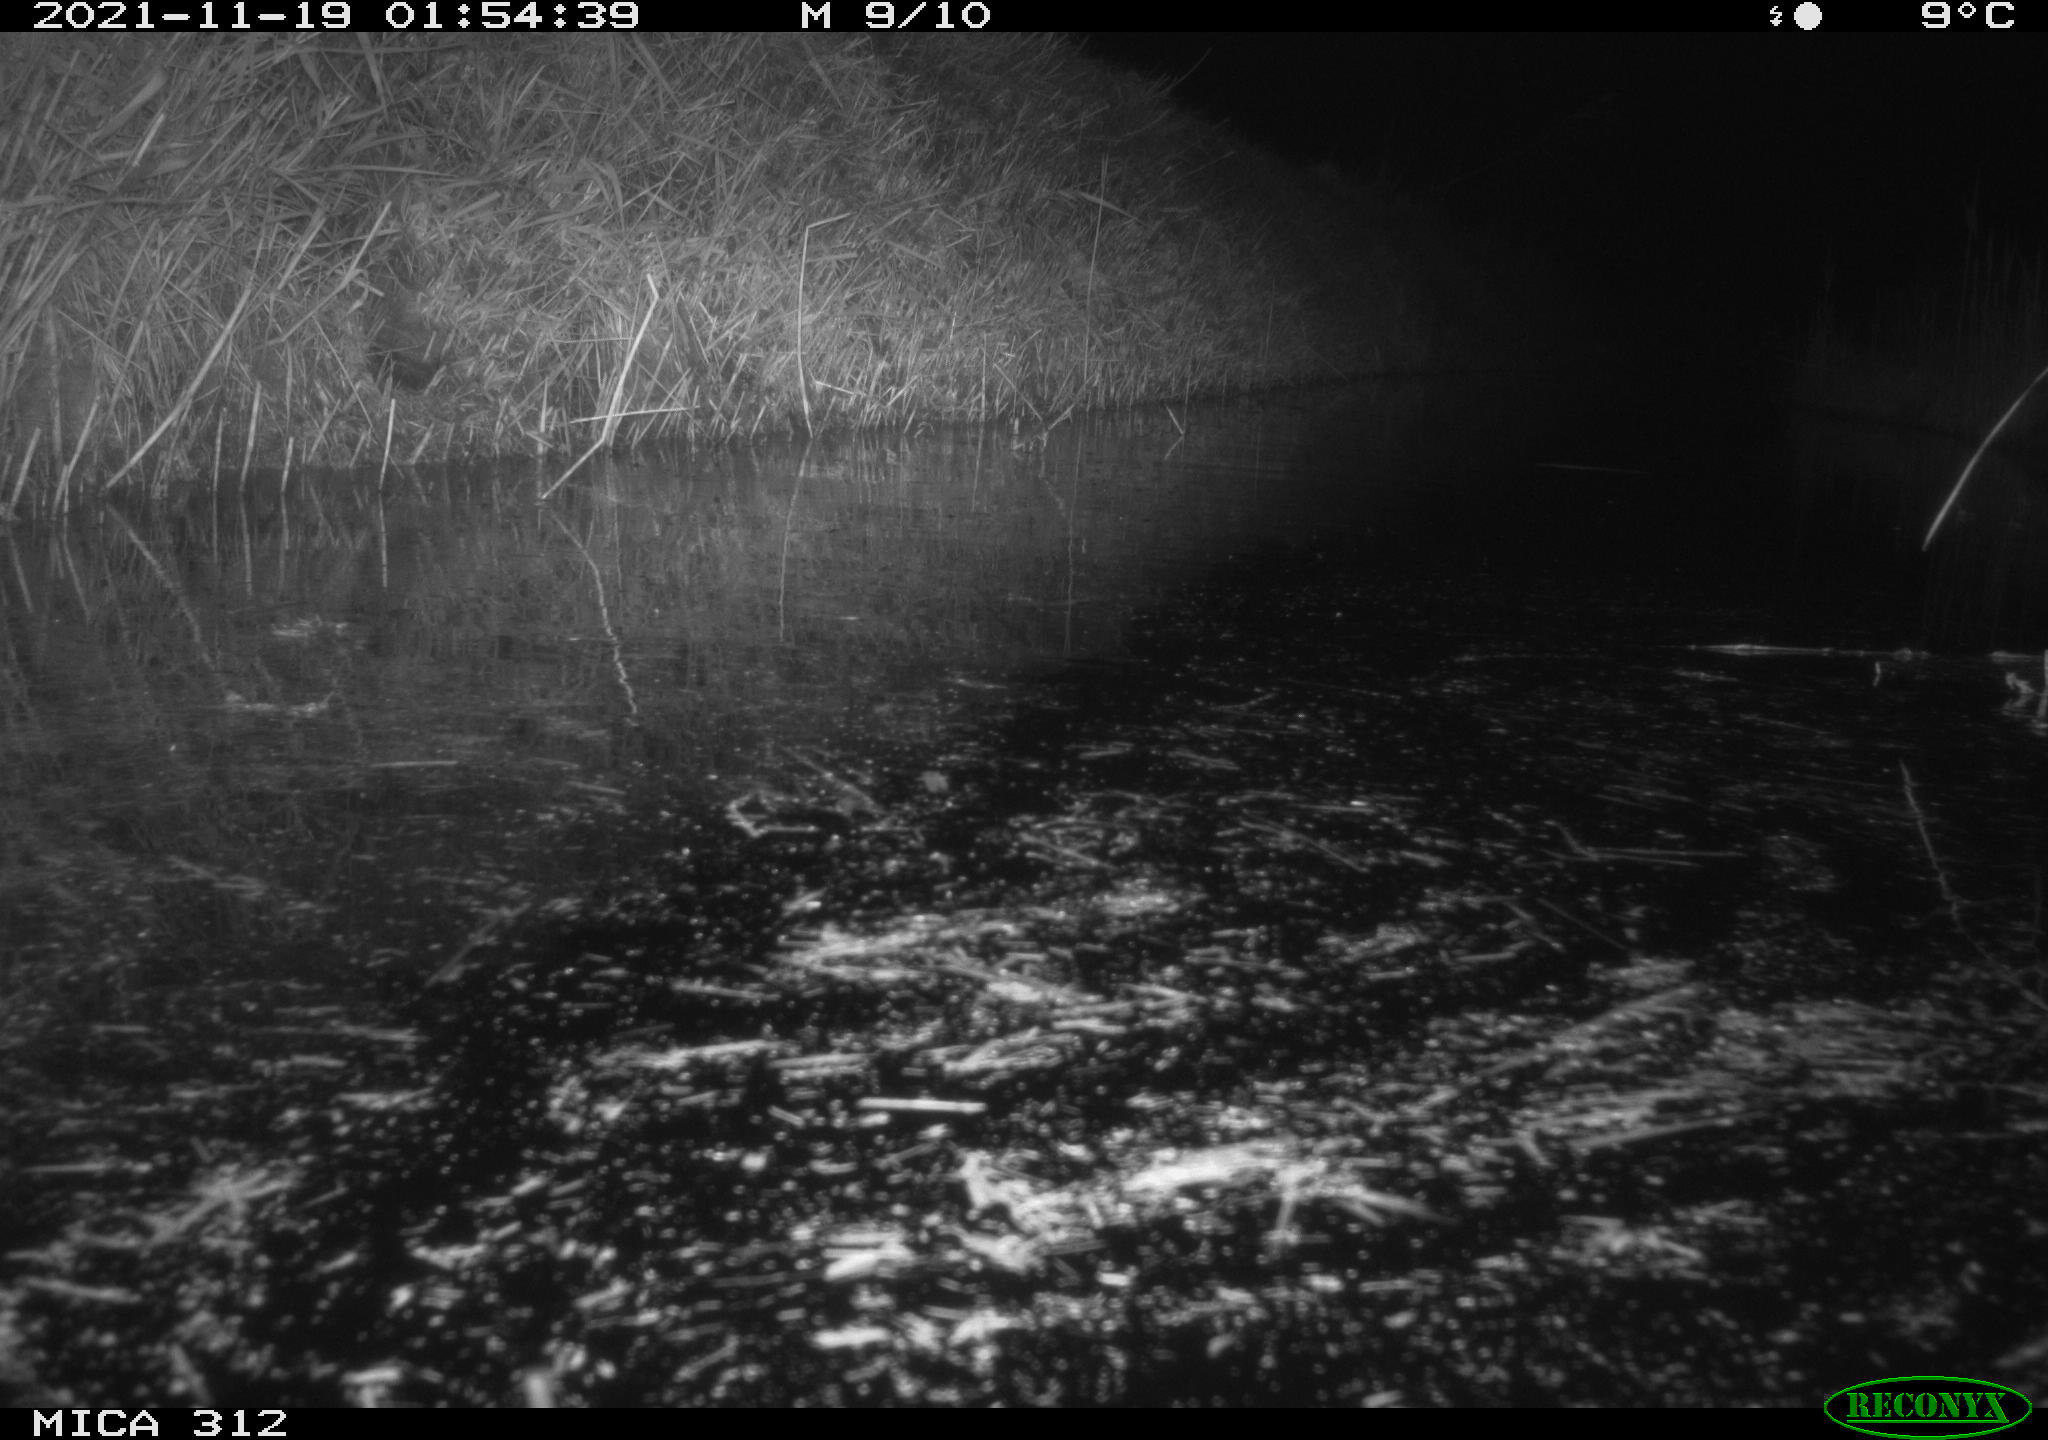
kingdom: Animalia
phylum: Chordata
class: Aves
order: Gruiformes
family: Rallidae
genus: Fulica
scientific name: Fulica atra
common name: Eurasian coot
